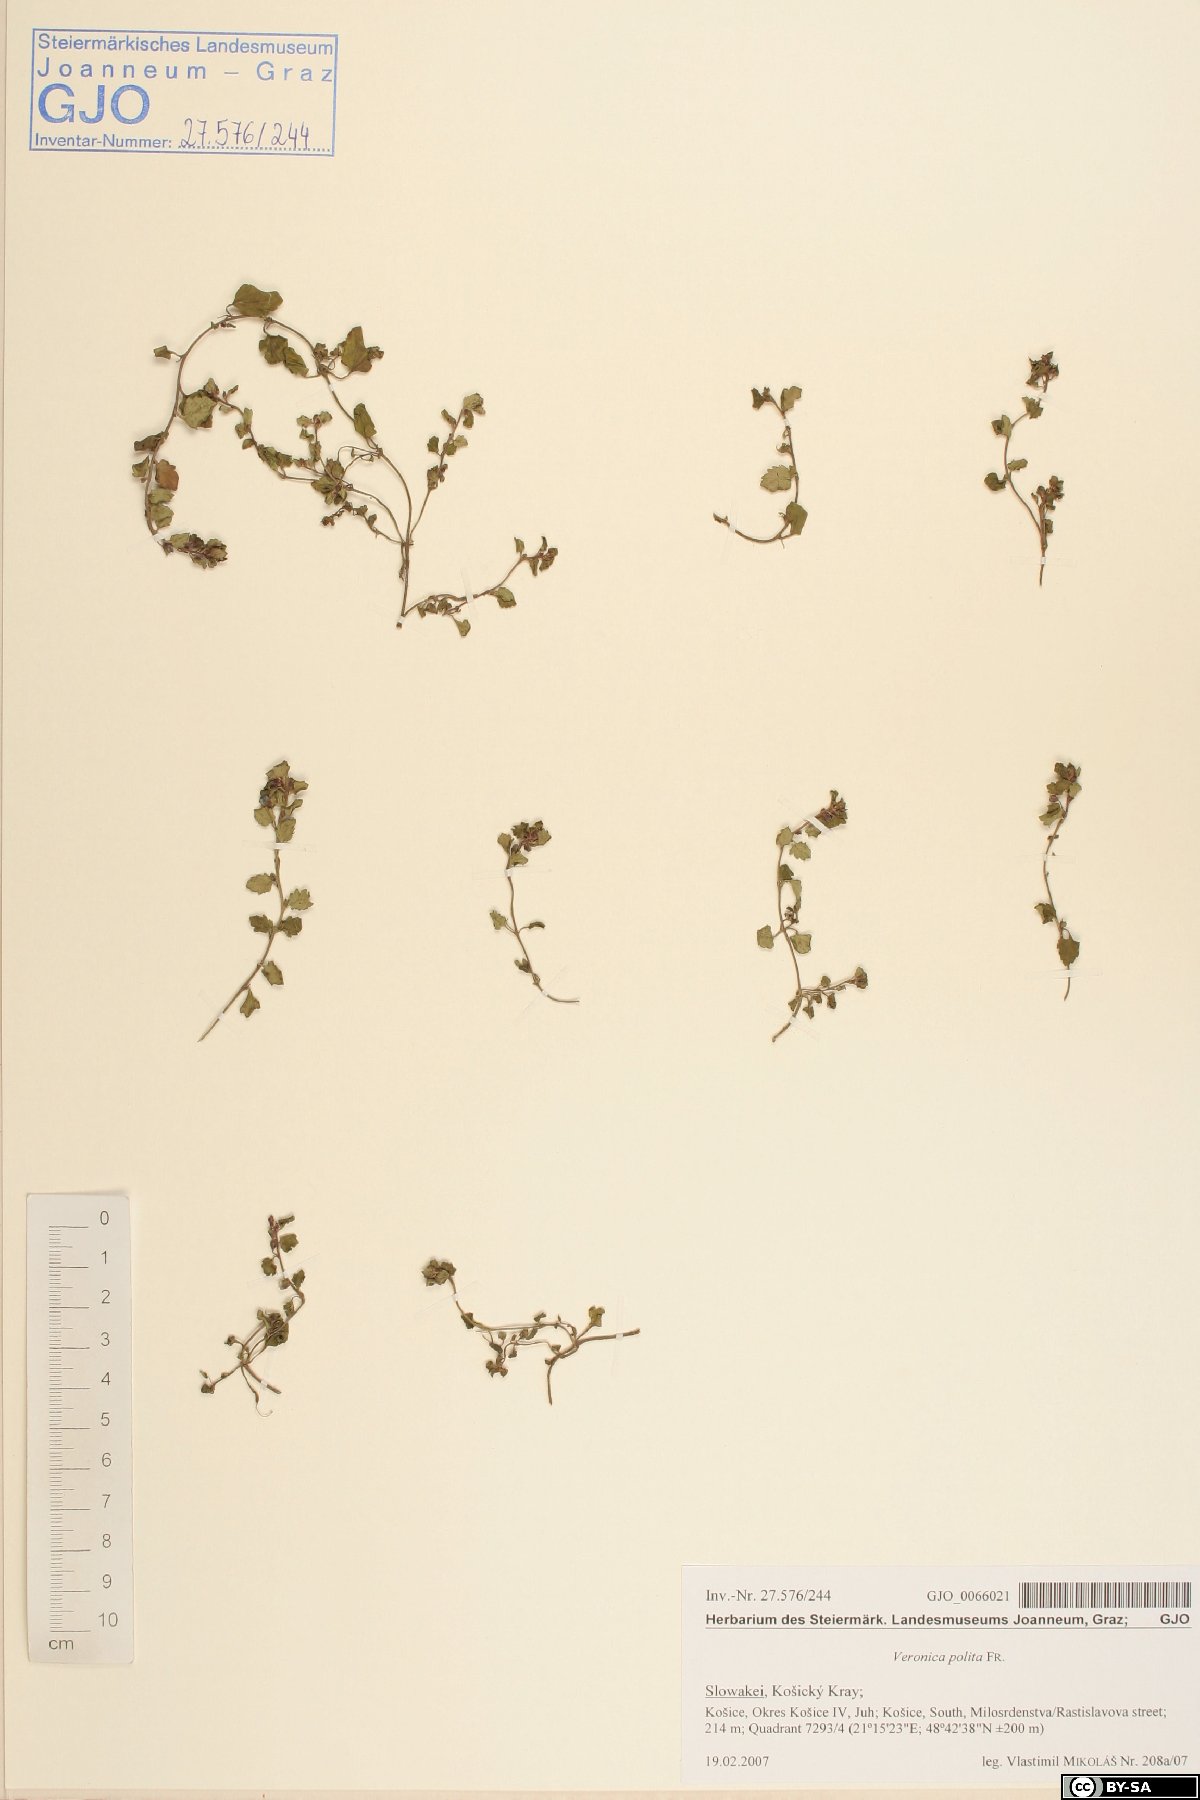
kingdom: Plantae
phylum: Tracheophyta
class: Magnoliopsida
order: Lamiales
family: Plantaginaceae
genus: Veronica
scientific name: Veronica polita
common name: Grey field-speedwell
